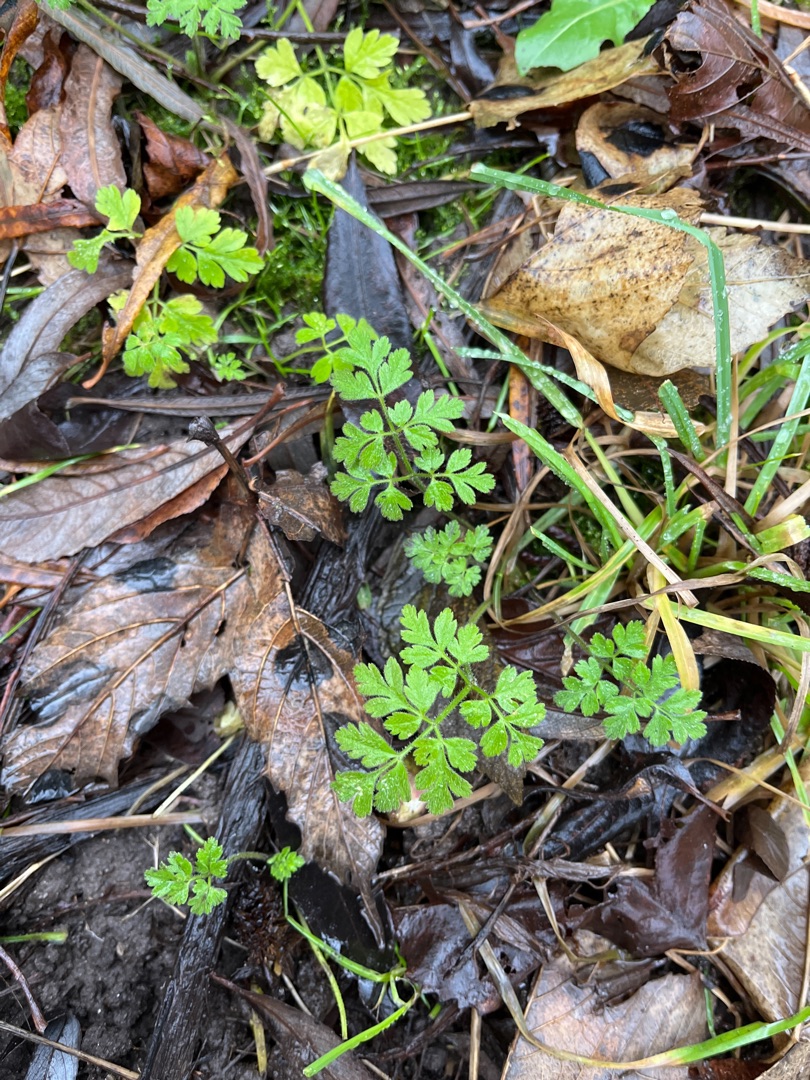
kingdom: Plantae
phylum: Tracheophyta
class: Magnoliopsida
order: Apiales
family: Apiaceae
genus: Chaerophyllum
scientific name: Chaerophyllum temulum
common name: Almindelig hulsvøb
